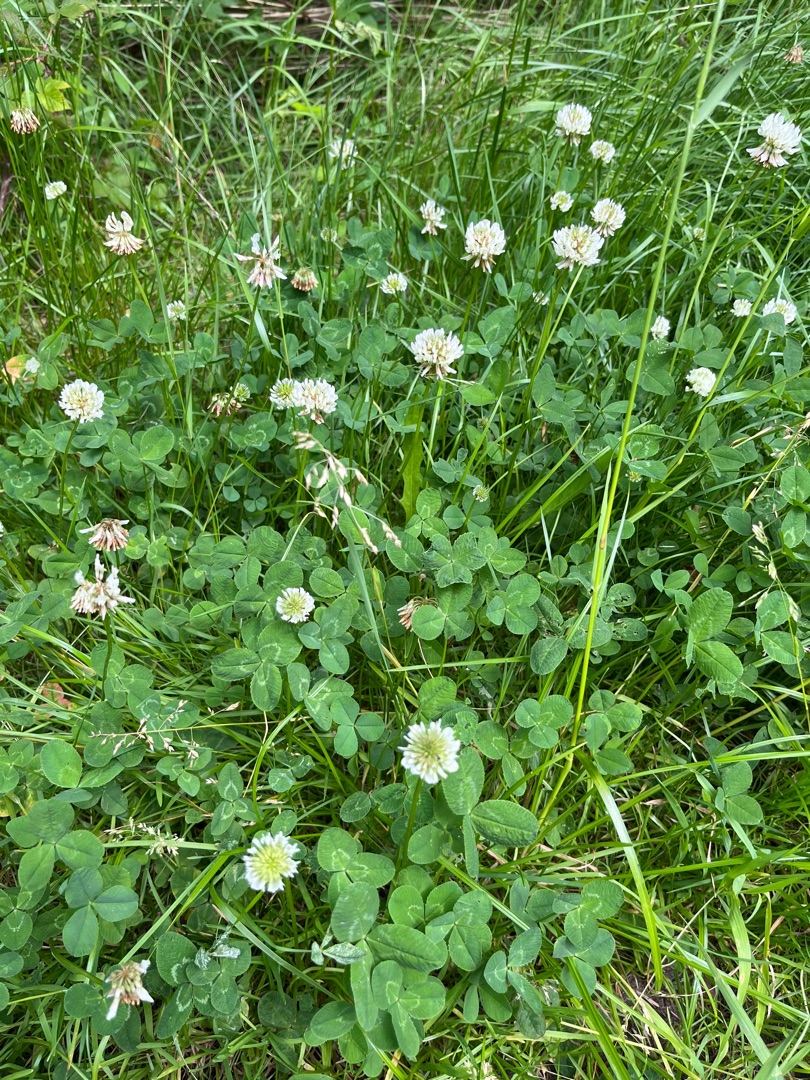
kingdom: Plantae
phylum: Tracheophyta
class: Magnoliopsida
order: Fabales
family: Fabaceae
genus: Trifolium
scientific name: Trifolium repens
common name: Hvid-kløver
